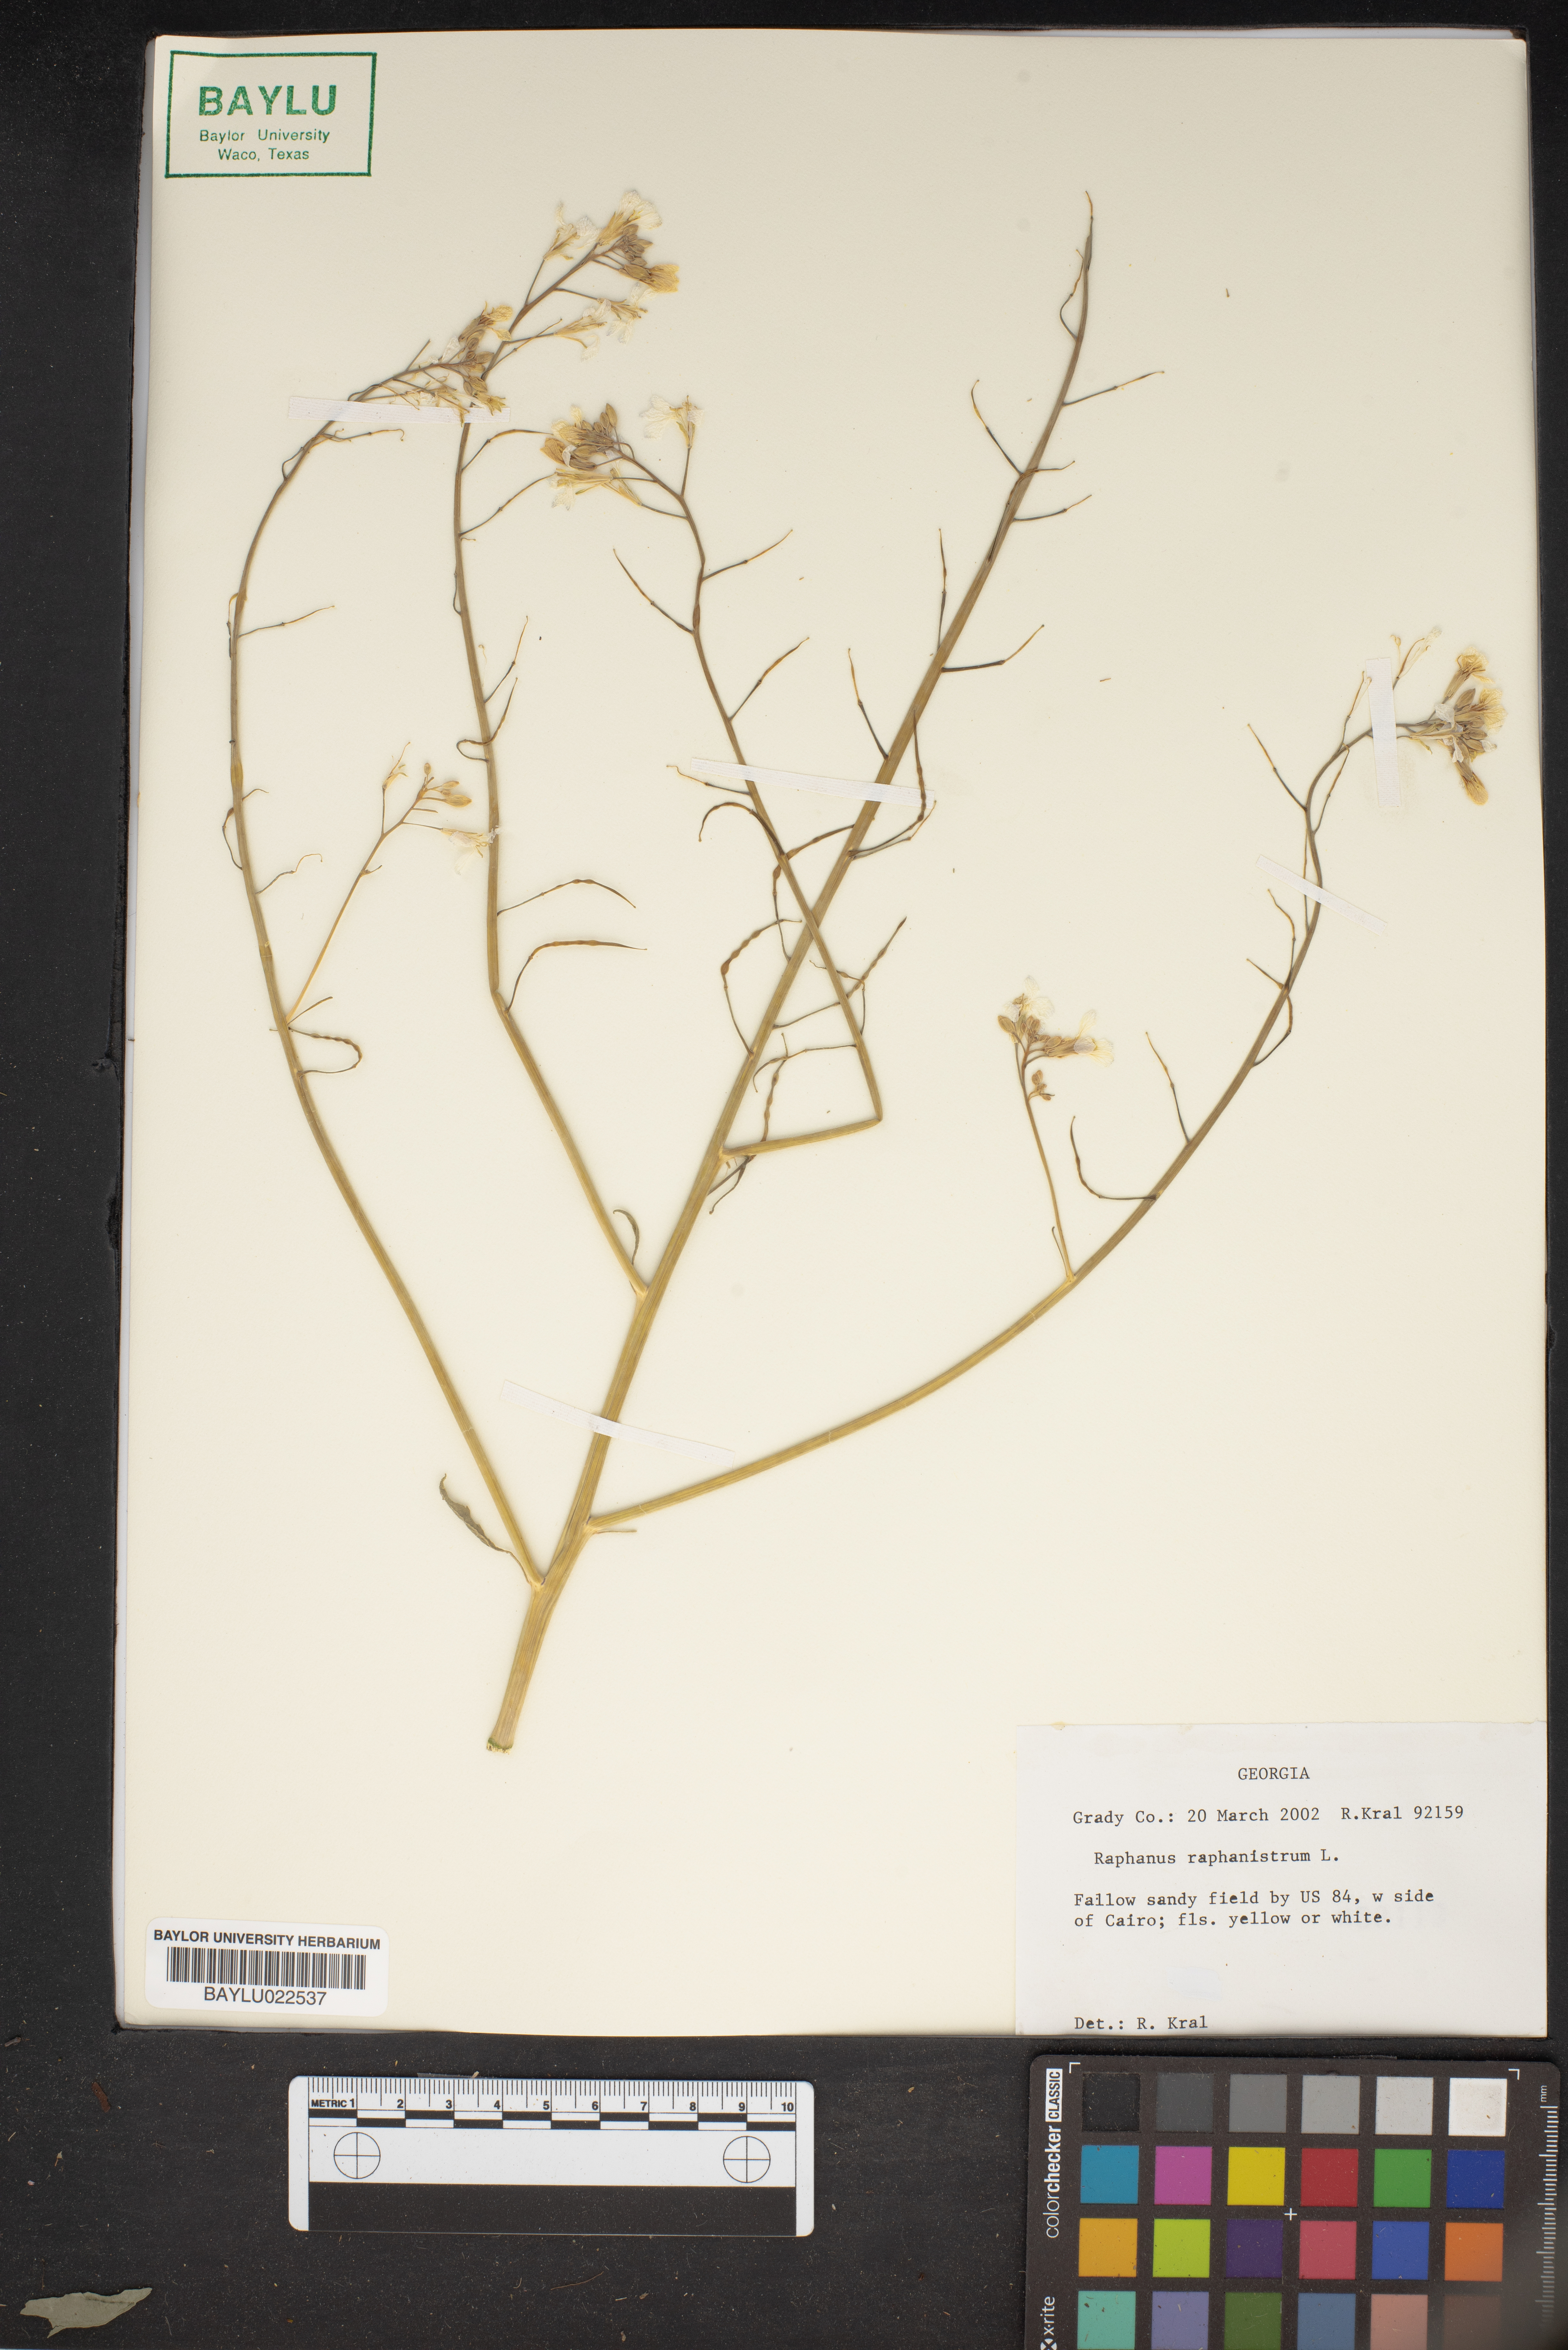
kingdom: Plantae
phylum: Tracheophyta
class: Magnoliopsida
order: Brassicales
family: Brassicaceae
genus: Raphanus
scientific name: Raphanus raphanistrum
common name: Wild radish
